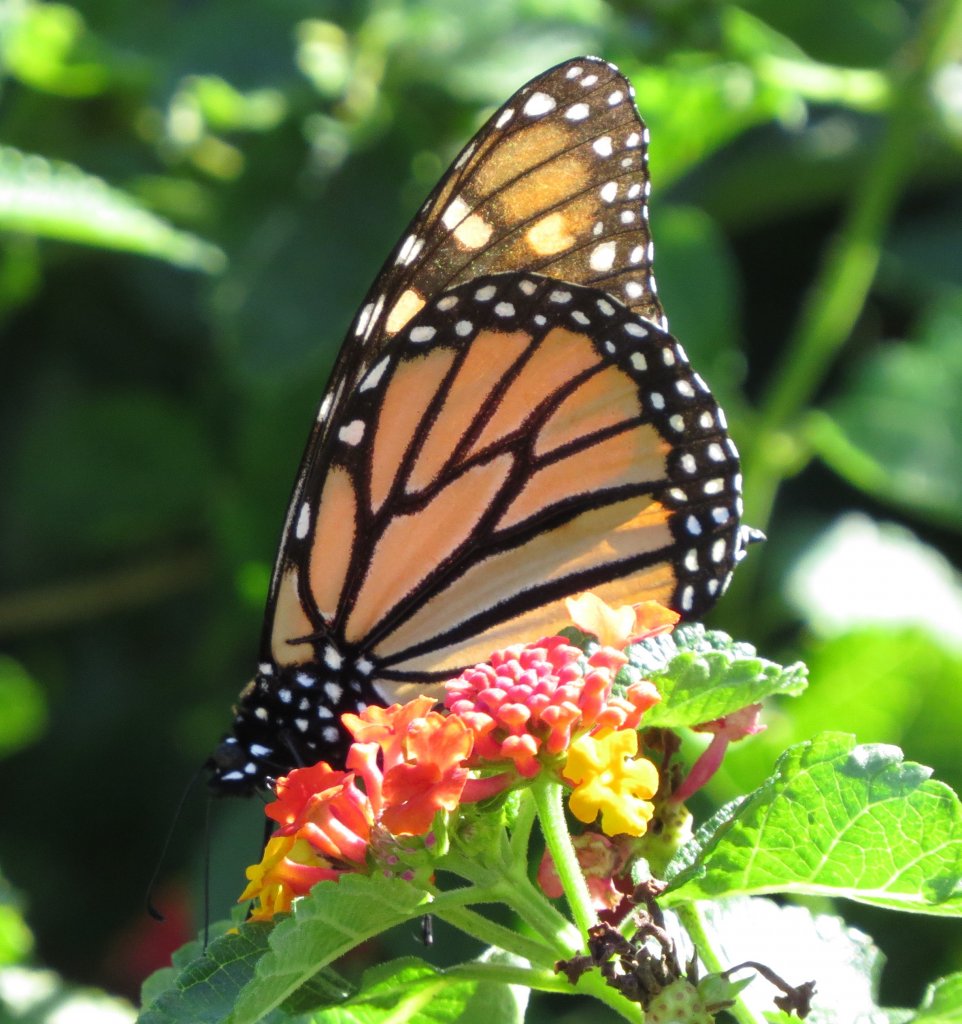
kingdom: Animalia
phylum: Arthropoda
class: Insecta
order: Lepidoptera
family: Nymphalidae
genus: Danaus
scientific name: Danaus plexippus
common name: Monarch
